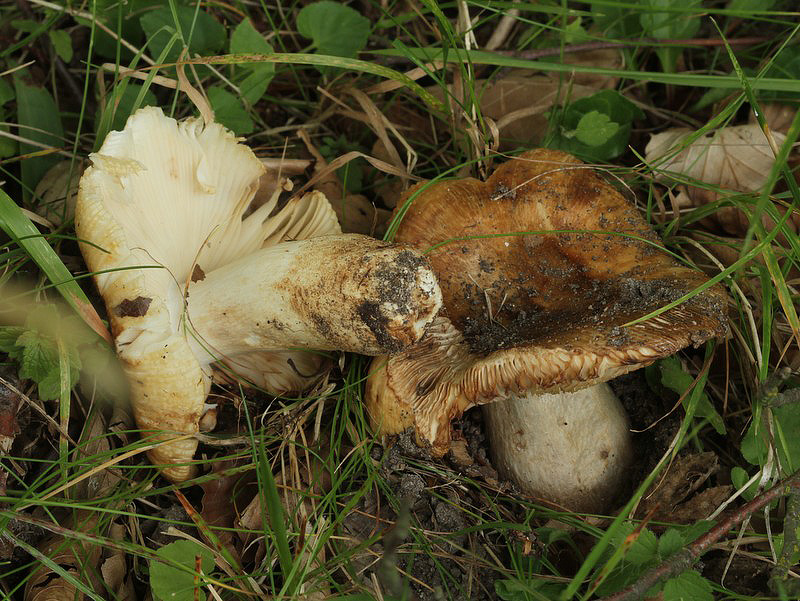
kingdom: Fungi
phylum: Basidiomycota
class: Agaricomycetes
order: Russulales
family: Russulaceae
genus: Russula
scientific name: Russula foetens
